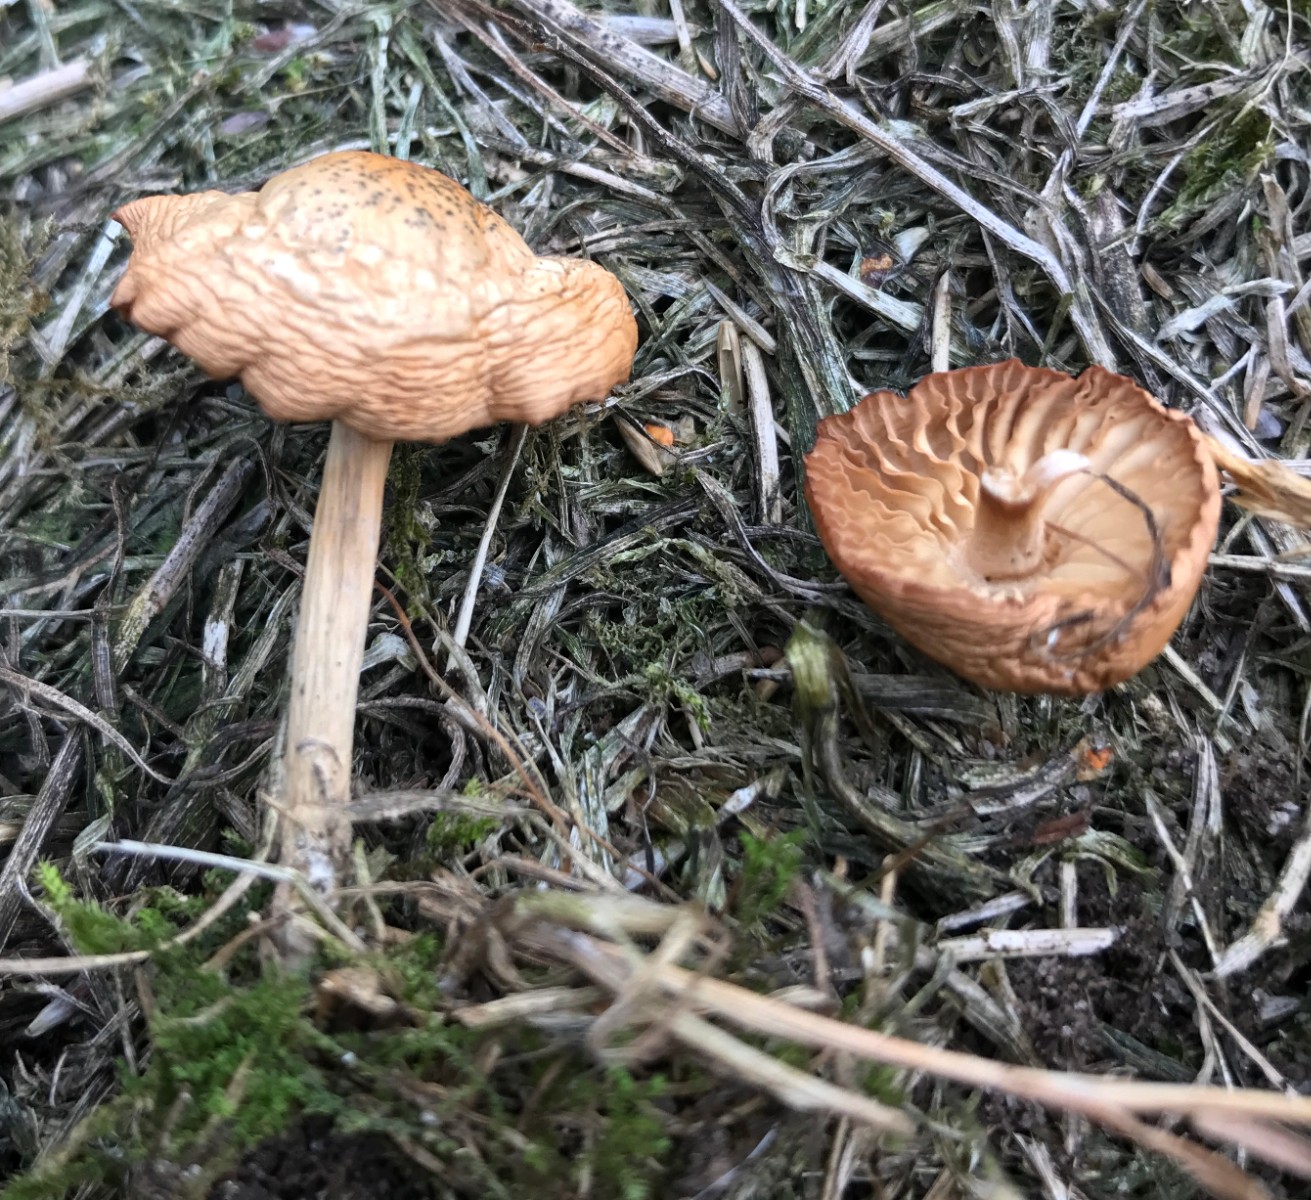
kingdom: Fungi
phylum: Basidiomycota
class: Agaricomycetes
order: Agaricales
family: Marasmiaceae
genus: Marasmius
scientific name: Marasmius oreades
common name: elledans-bruskhat
